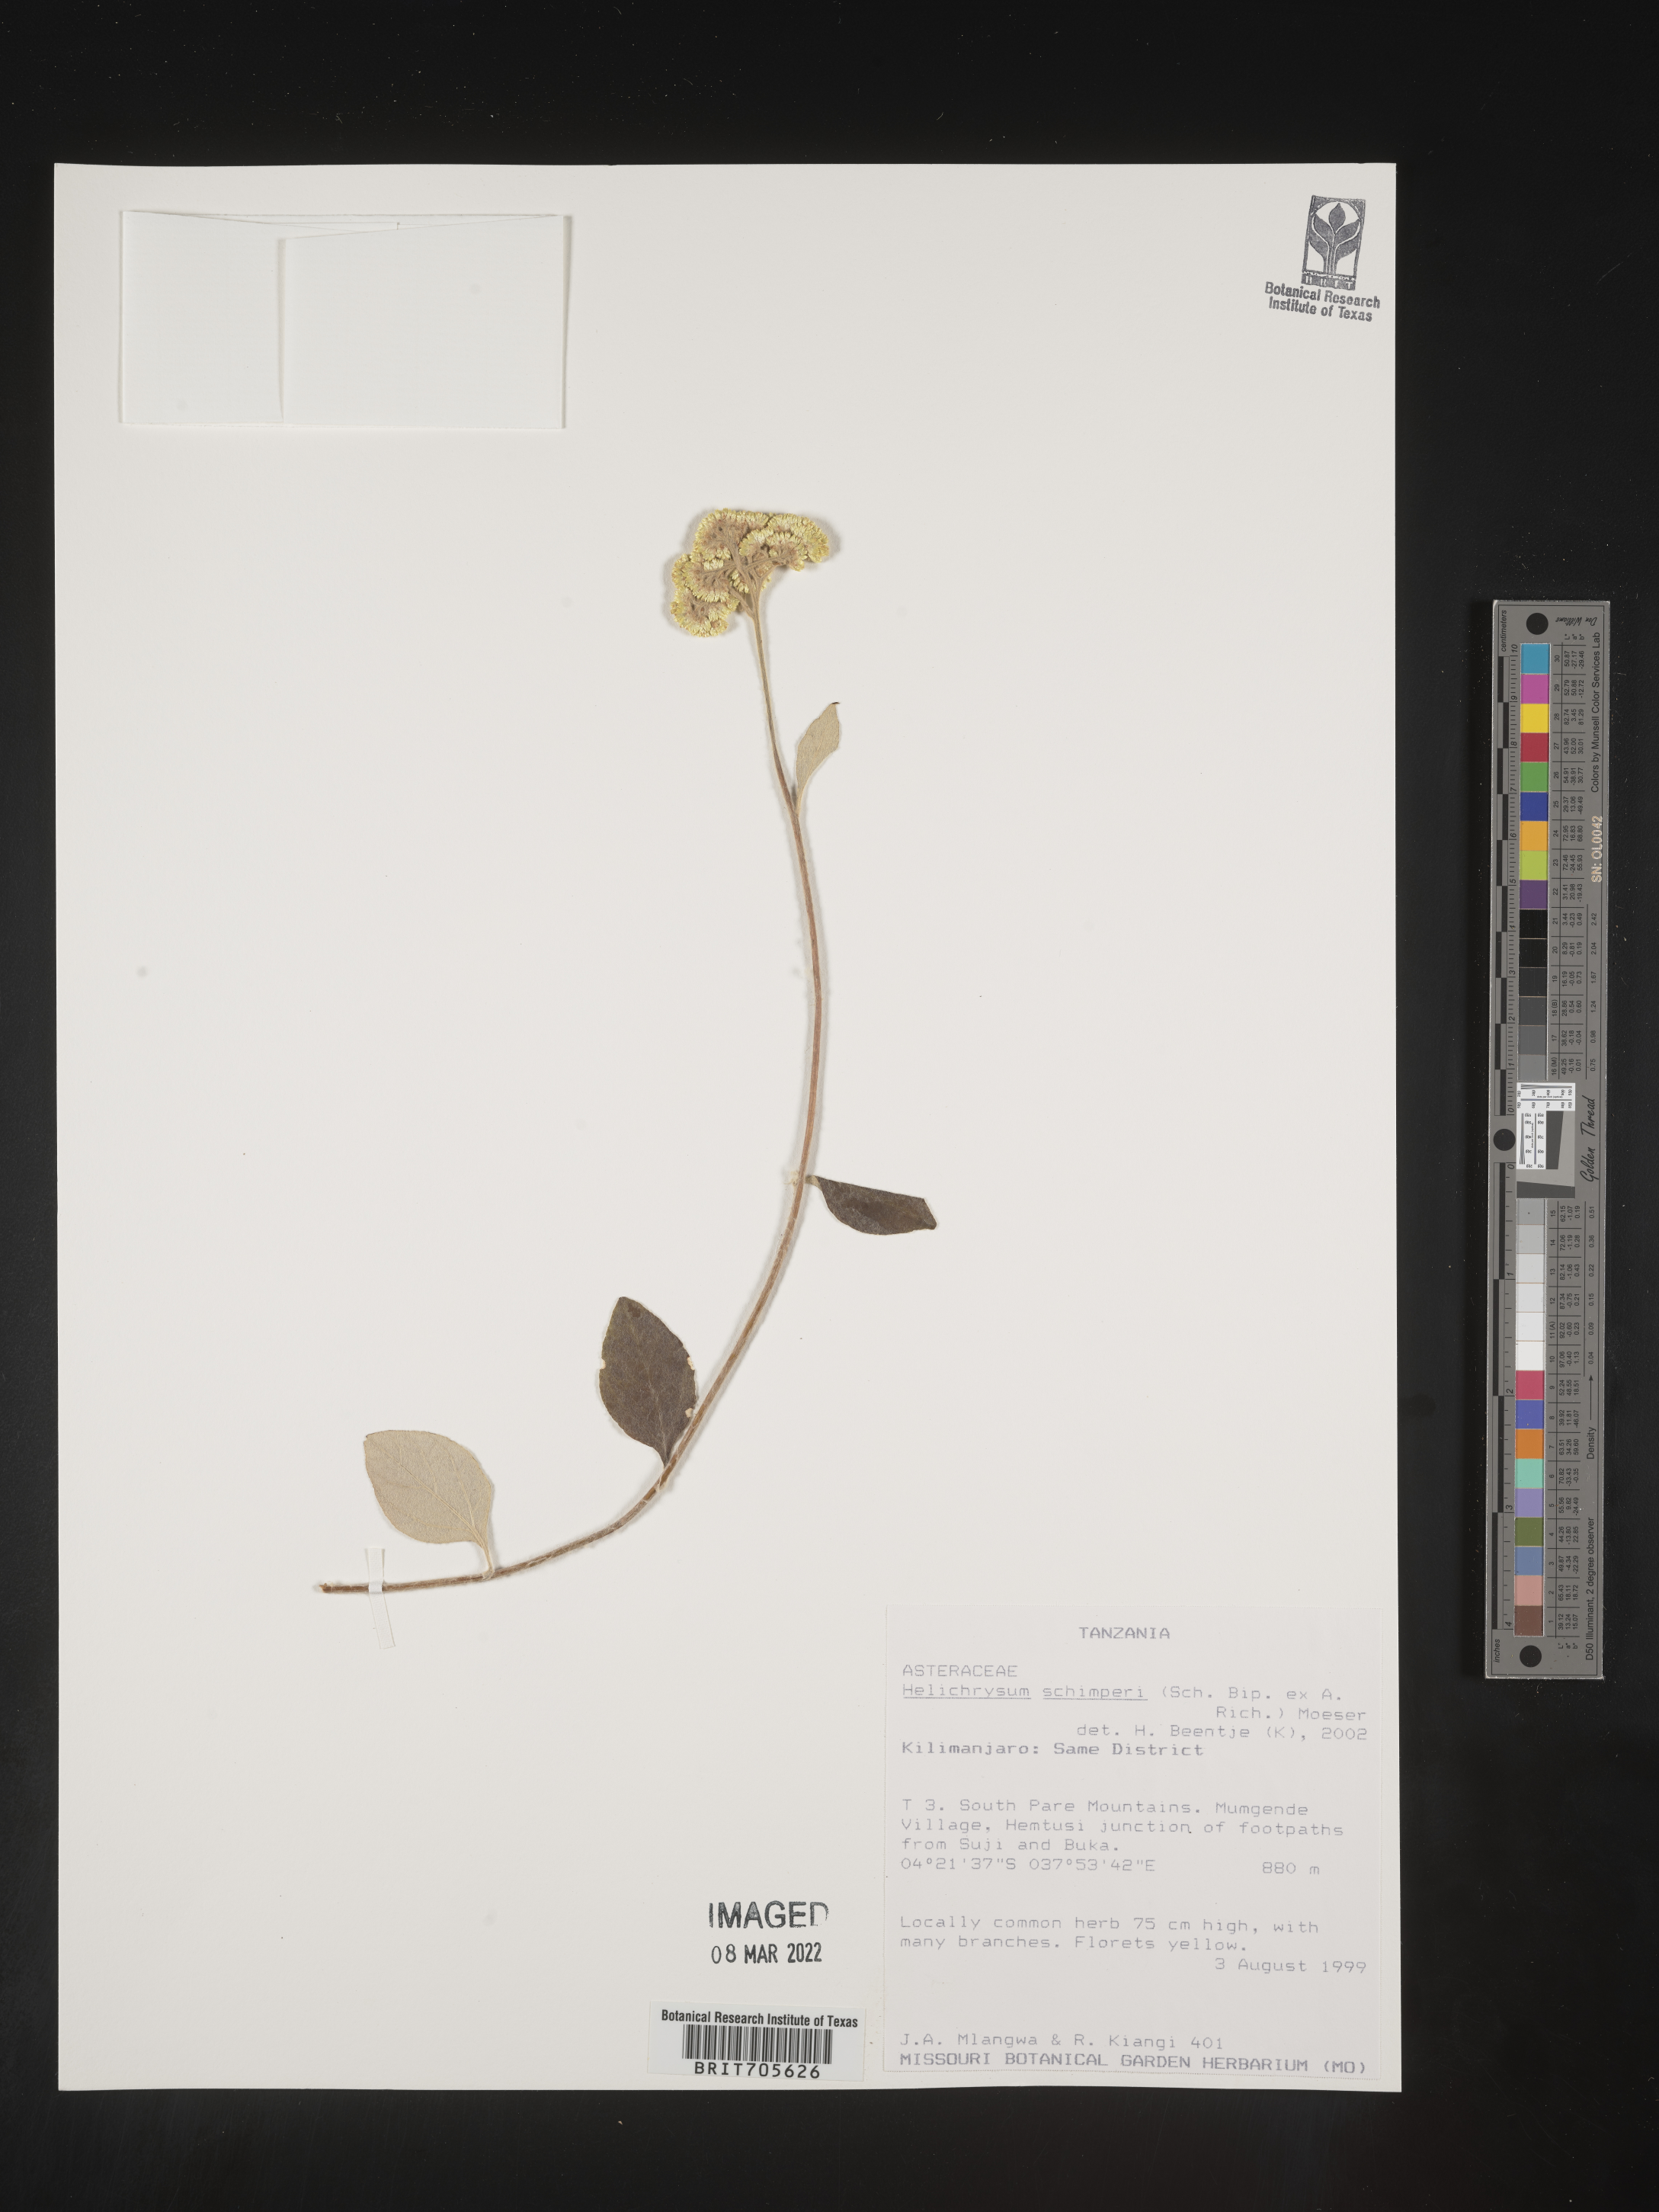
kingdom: Plantae
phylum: Tracheophyta
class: Magnoliopsida
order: Asterales
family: Asteraceae
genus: Helichrysum
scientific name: Helichrysum schimperi
